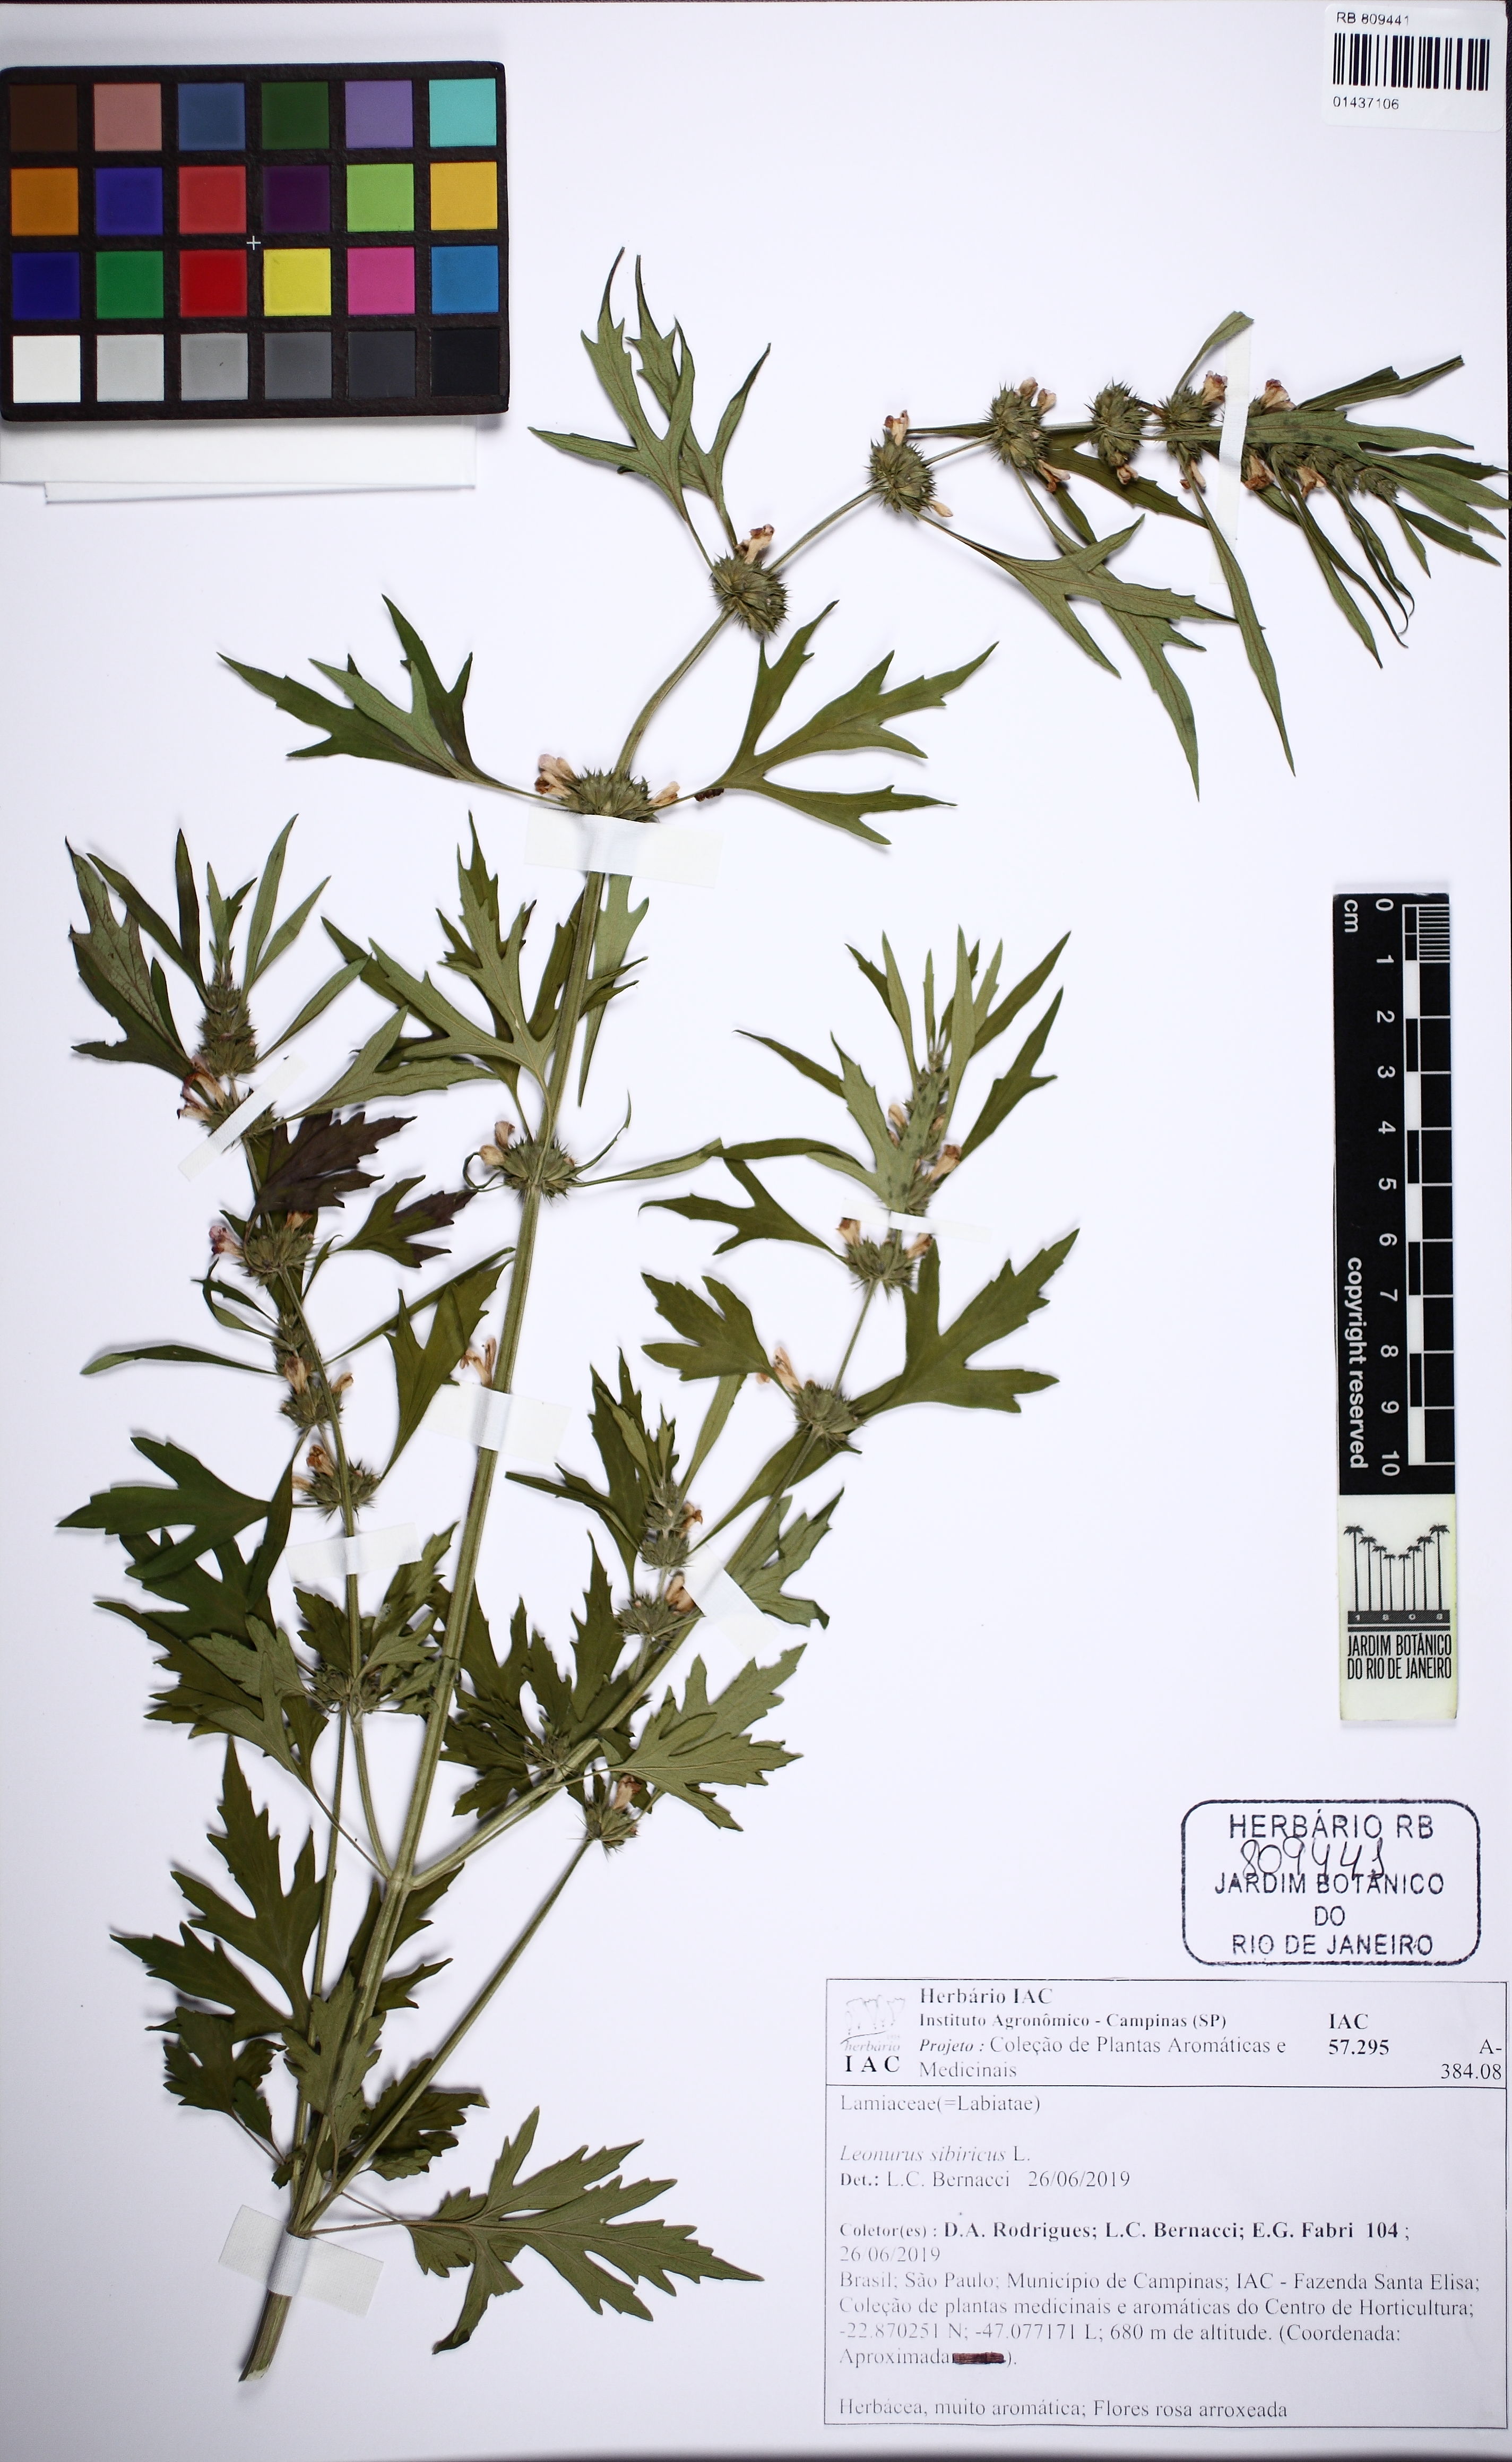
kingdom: Plantae
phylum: Tracheophyta
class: Magnoliopsida
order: Lamiales
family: Lamiaceae
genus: Leonurus
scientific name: Leonurus sibiricus
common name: Honeyweed
